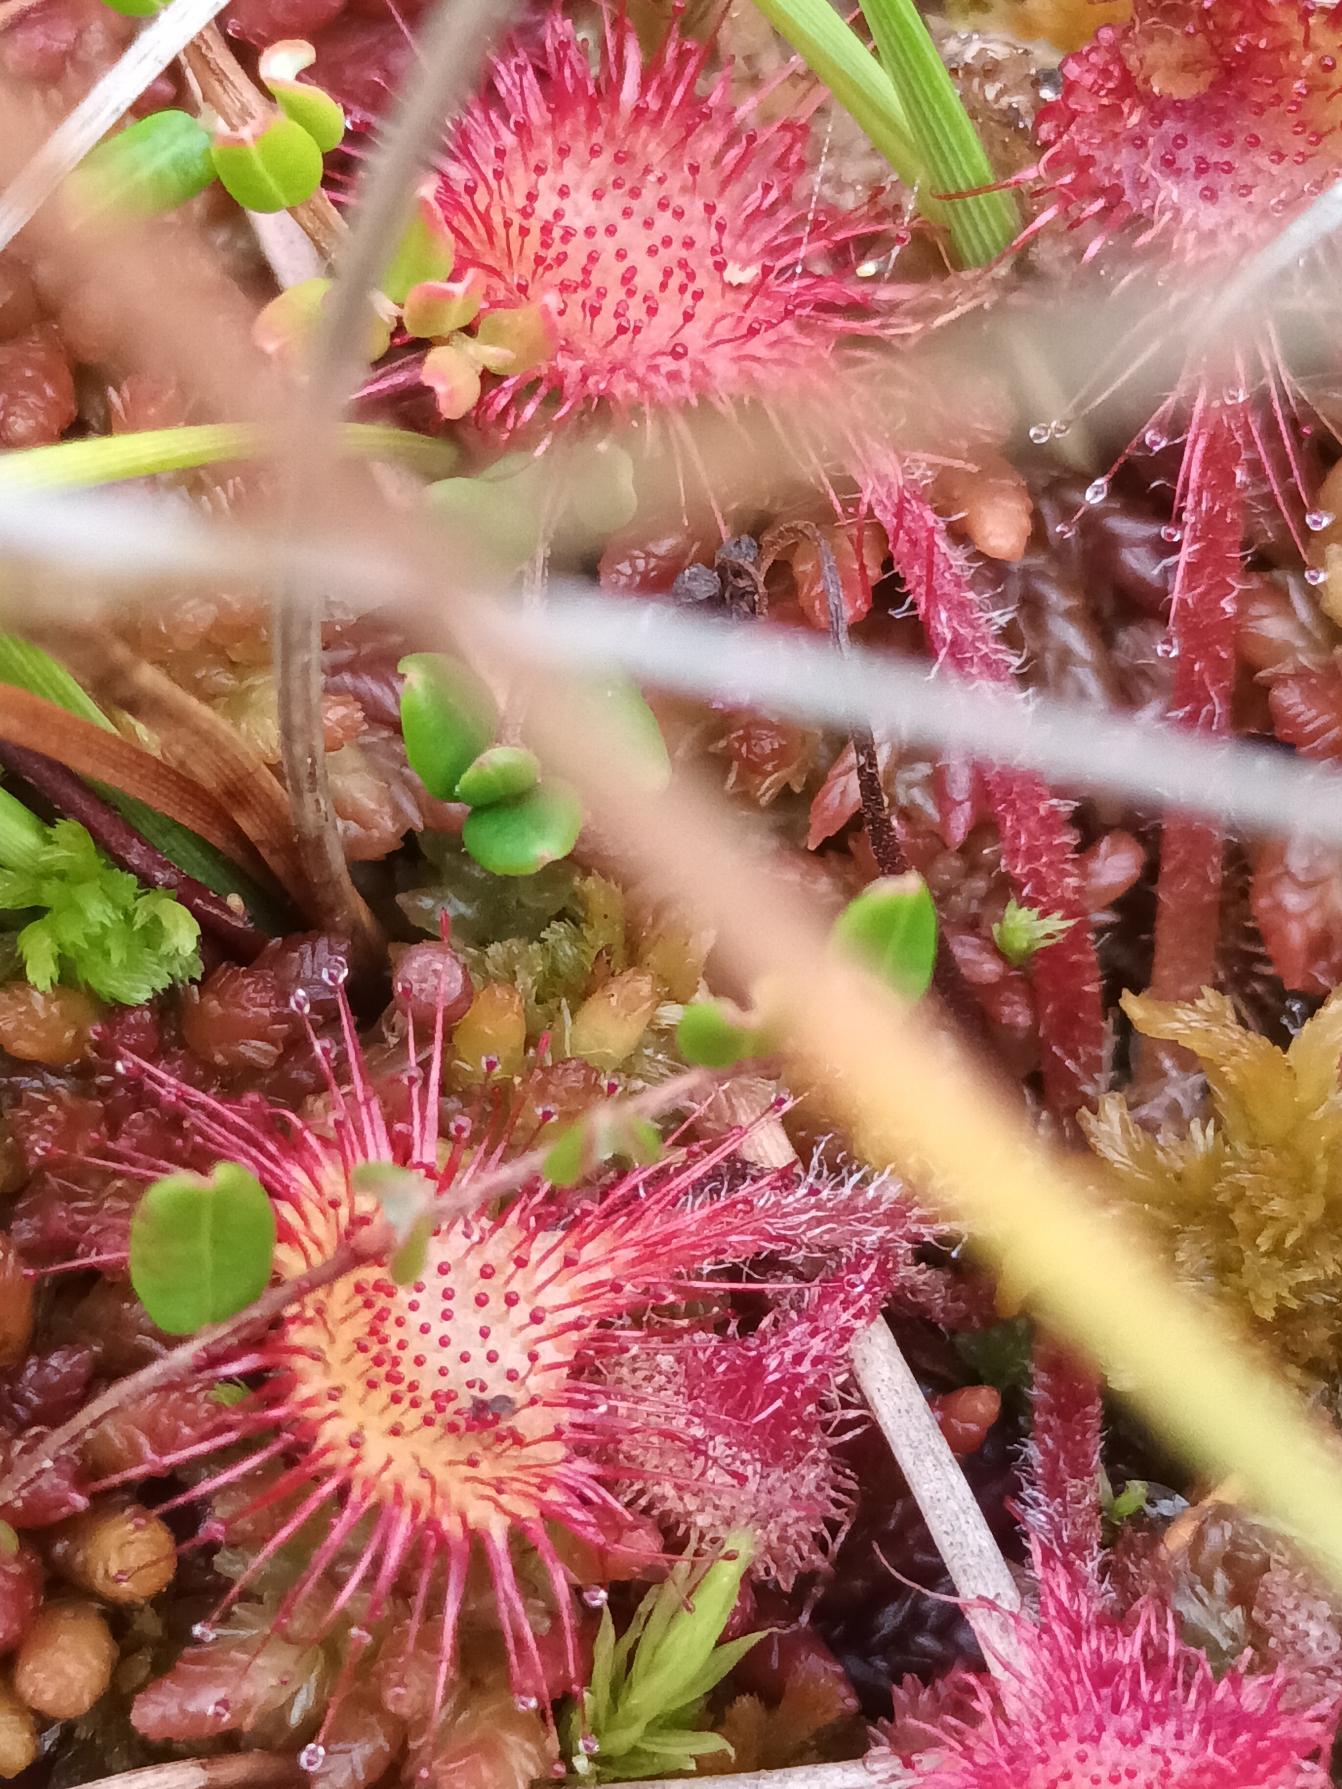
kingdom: Plantae
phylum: Tracheophyta
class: Magnoliopsida
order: Caryophyllales
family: Droseraceae
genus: Drosera
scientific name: Drosera rotundifolia
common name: Rundbladet soldug
